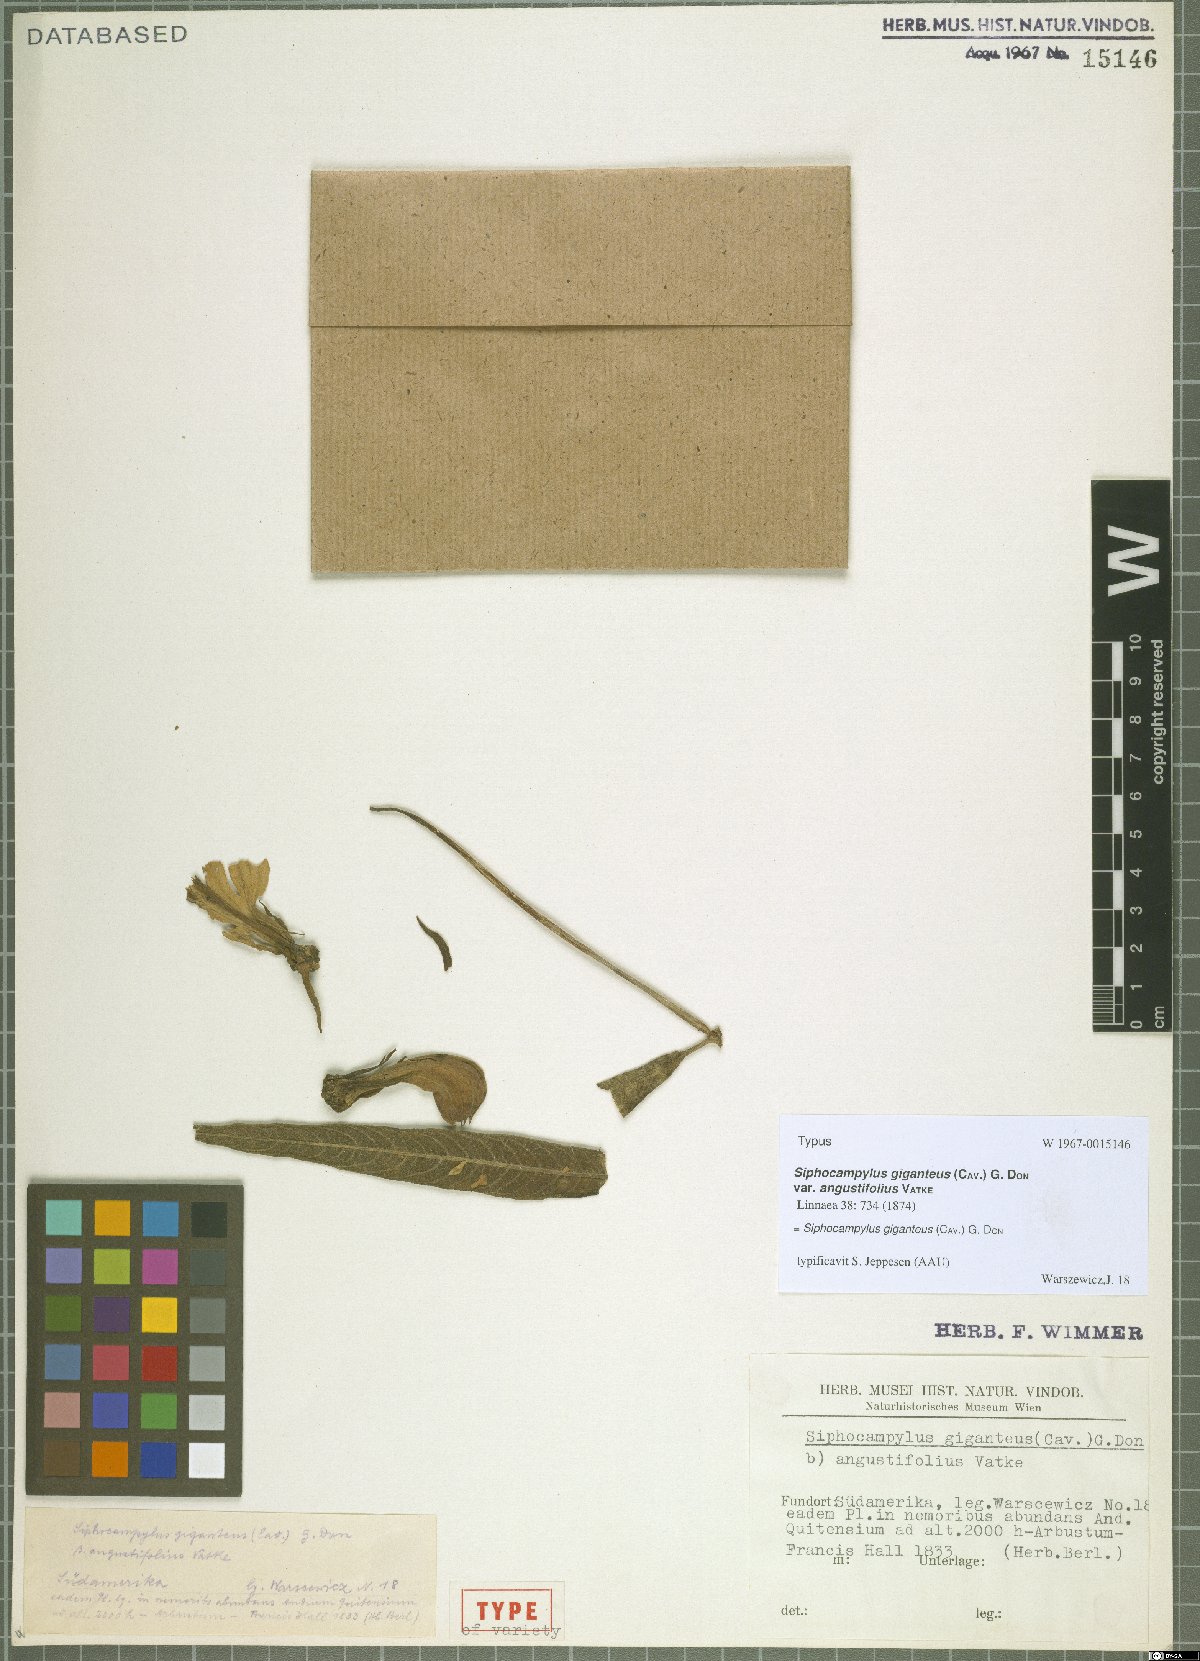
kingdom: Plantae
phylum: Tracheophyta
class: Magnoliopsida
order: Asterales
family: Campanulaceae
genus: Siphocampylus
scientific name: Siphocampylus giganteus
